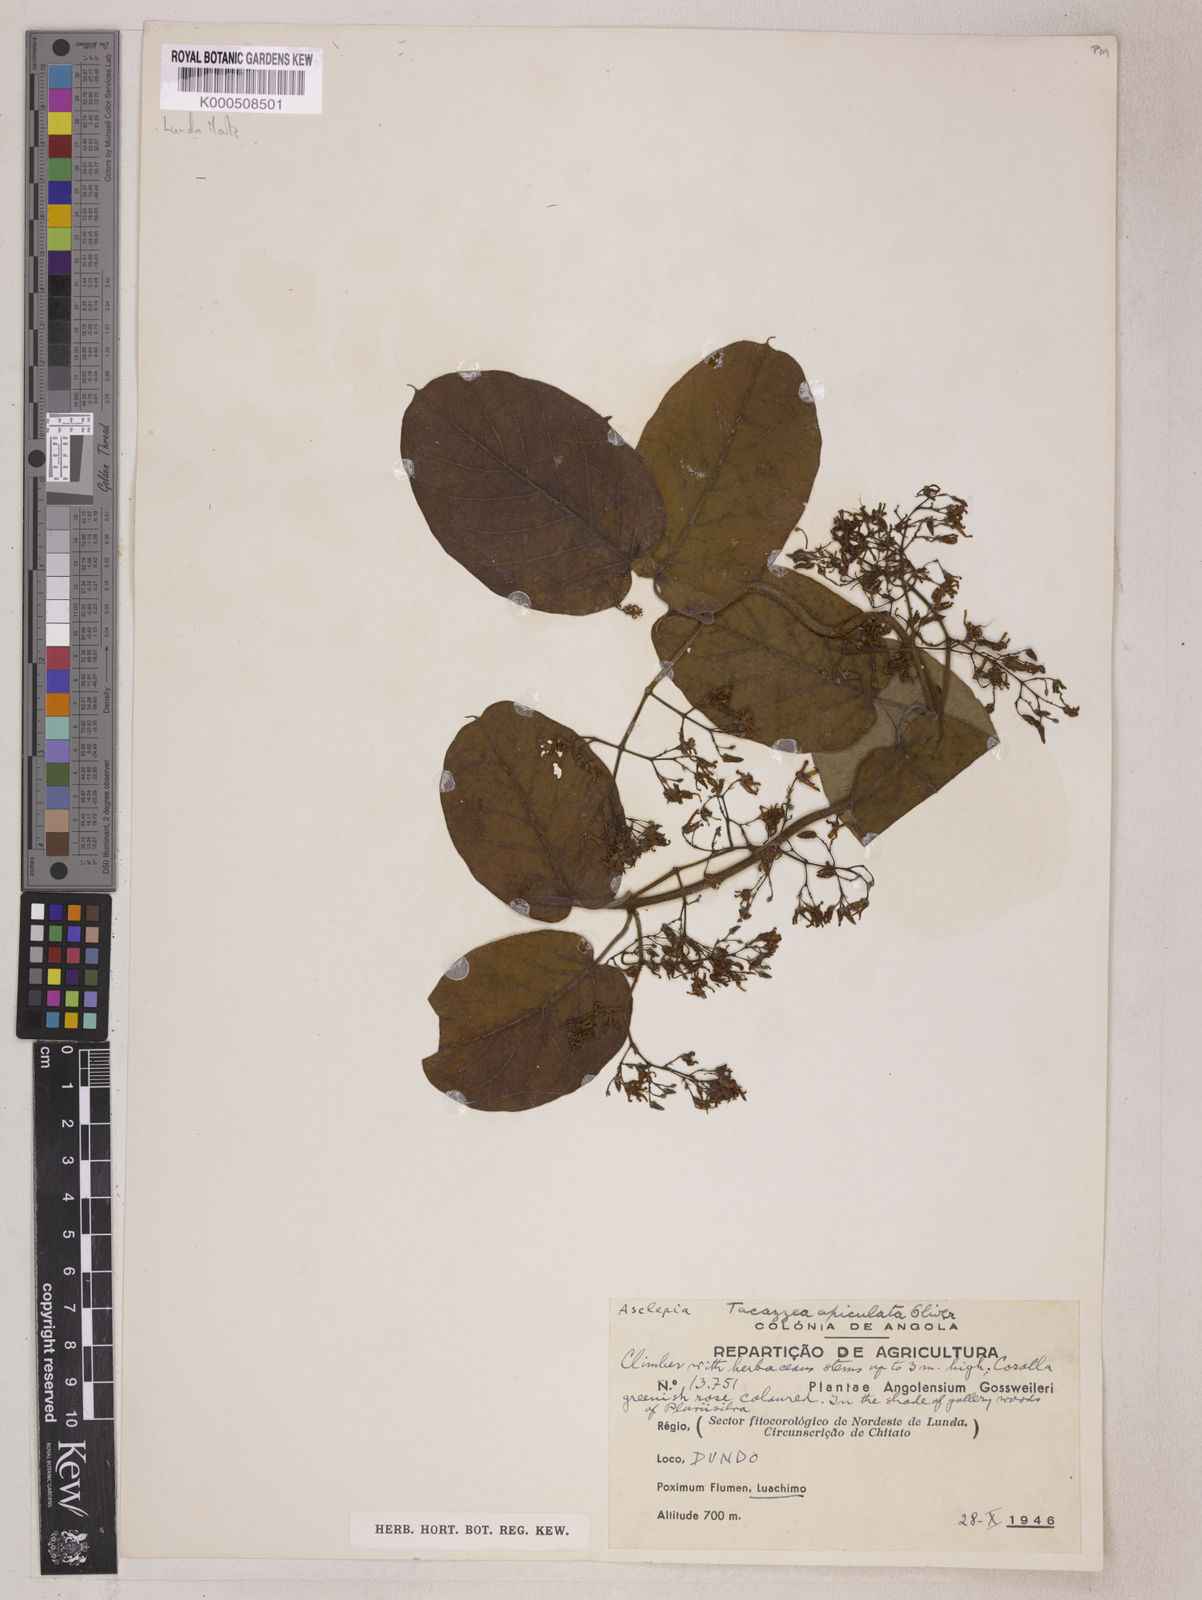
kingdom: Plantae
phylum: Tracheophyta
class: Magnoliopsida
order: Gentianales
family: Apocynaceae
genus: Tacazzea
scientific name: Tacazzea apiculata
